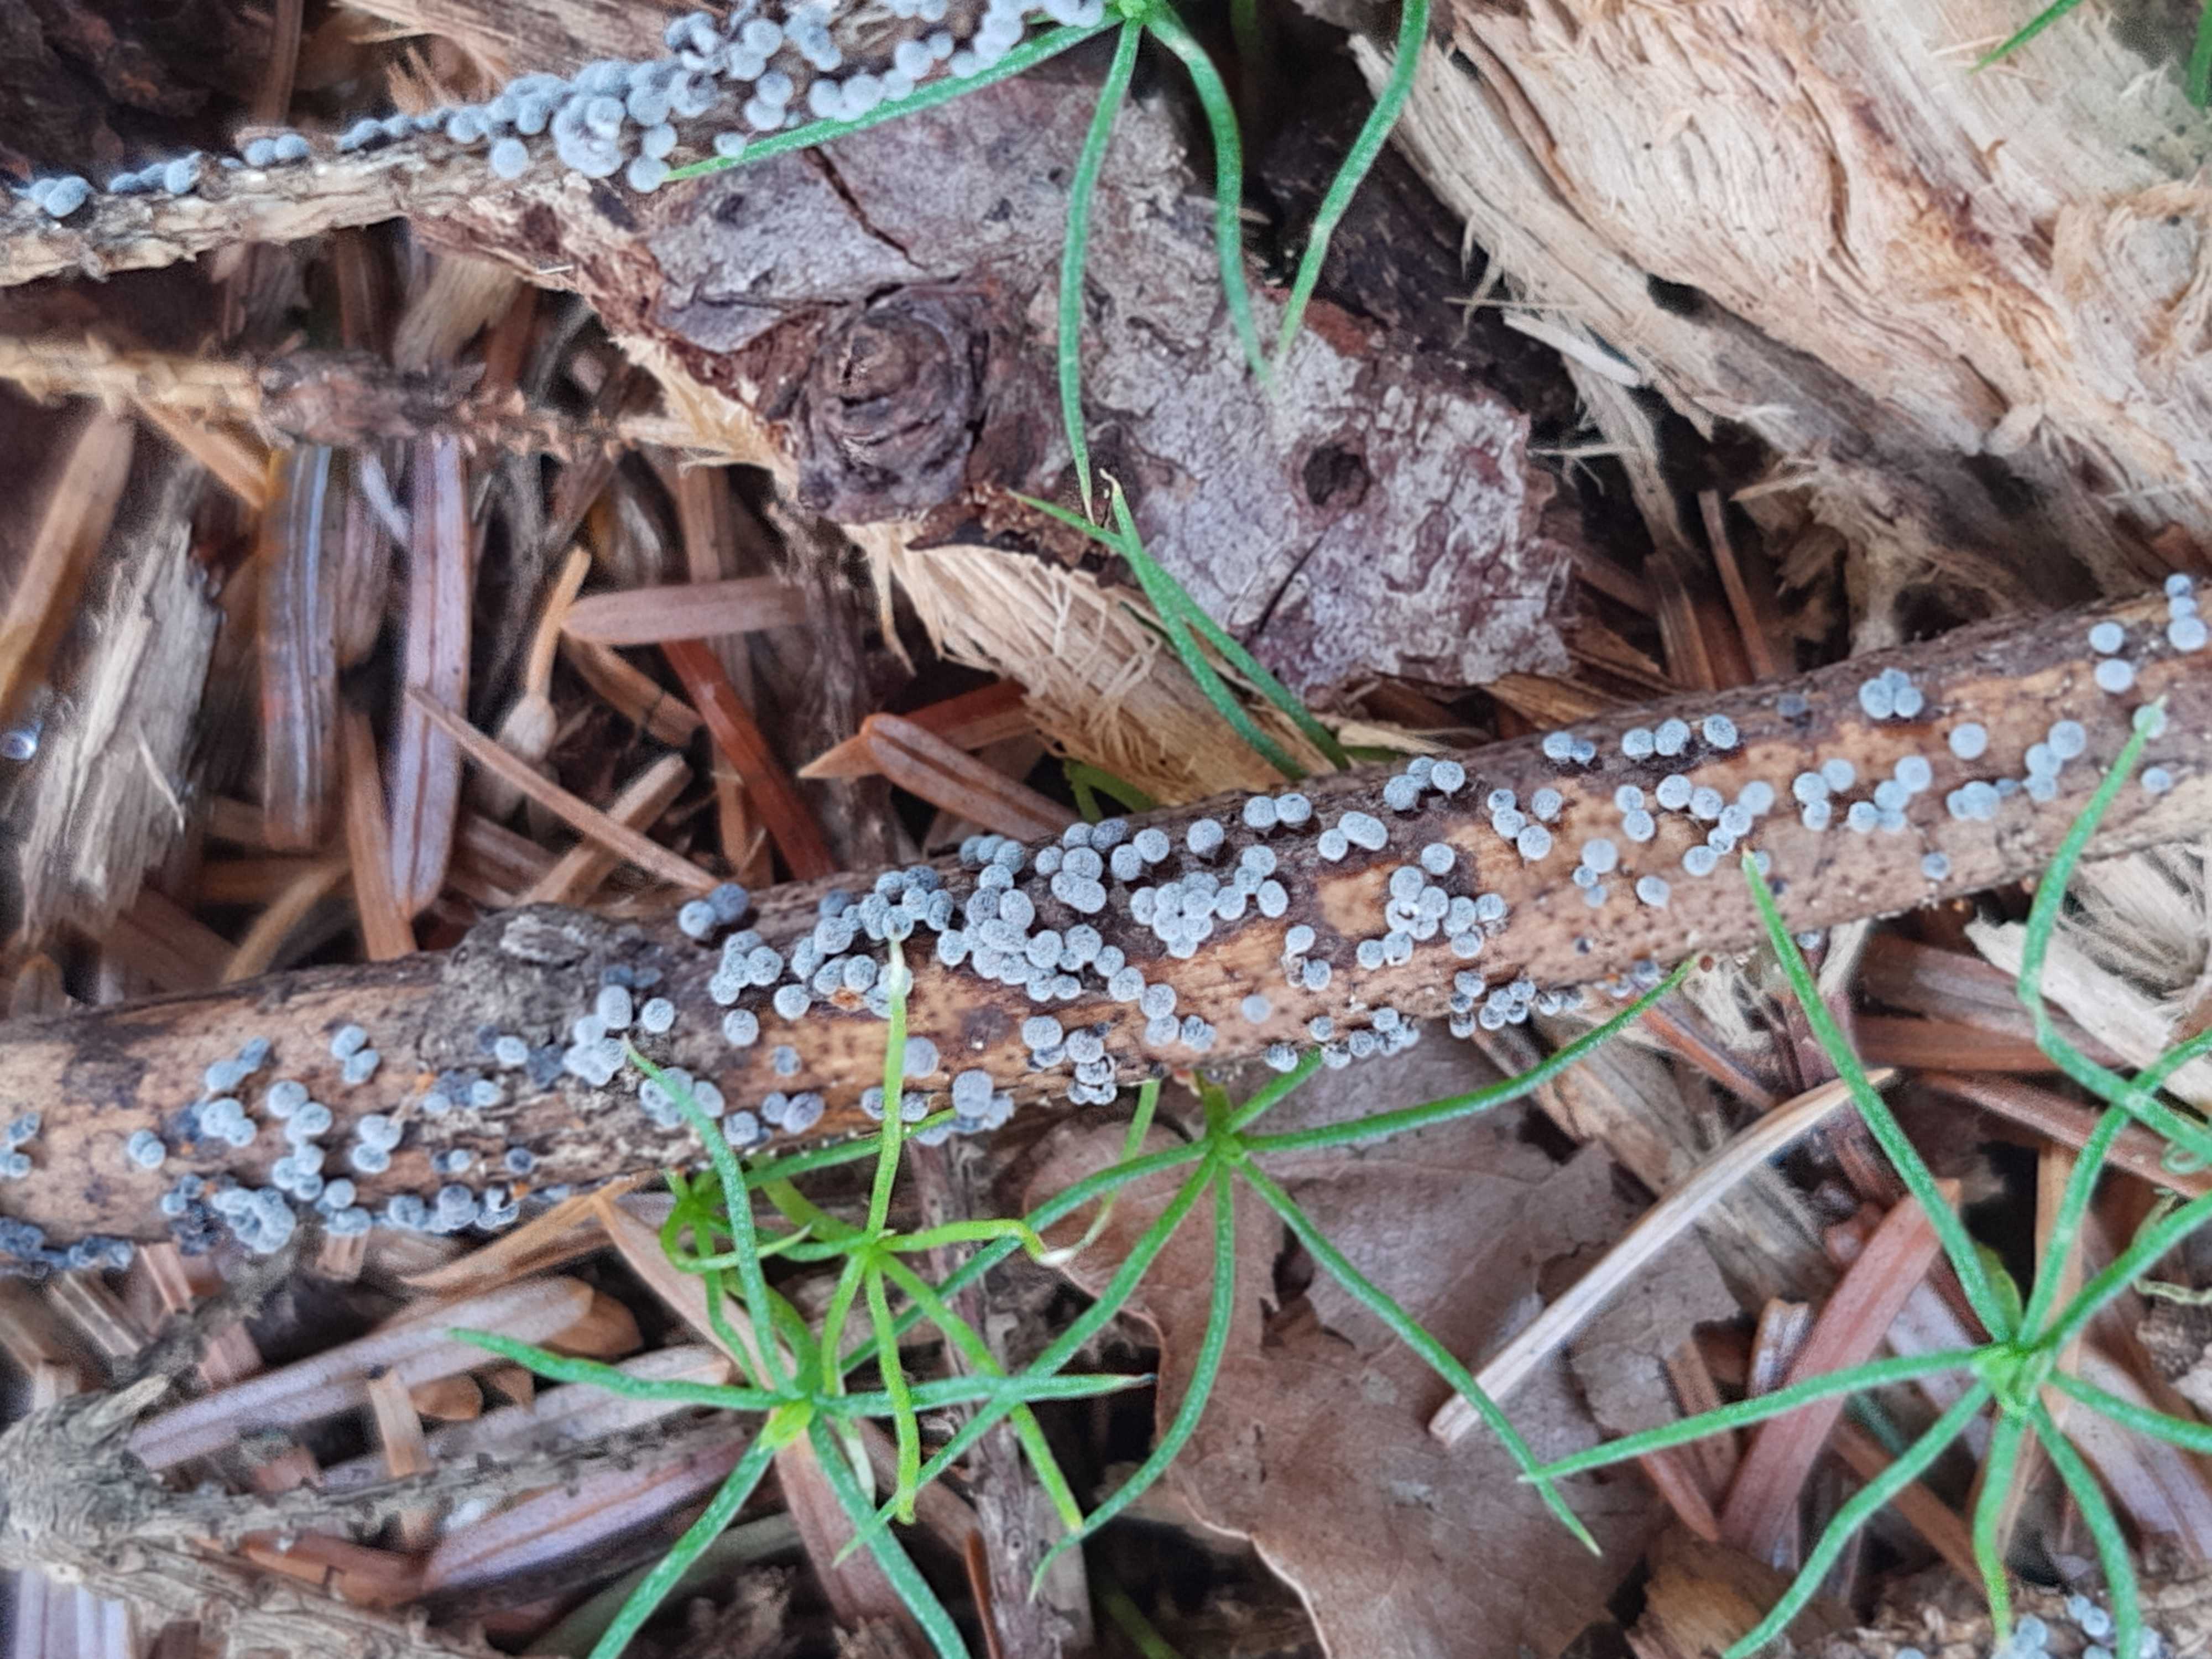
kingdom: Protozoa
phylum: Mycetozoa
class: Myxomycetes
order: Physarales
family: Physaraceae
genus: Badhamia
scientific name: Badhamia foliicola
